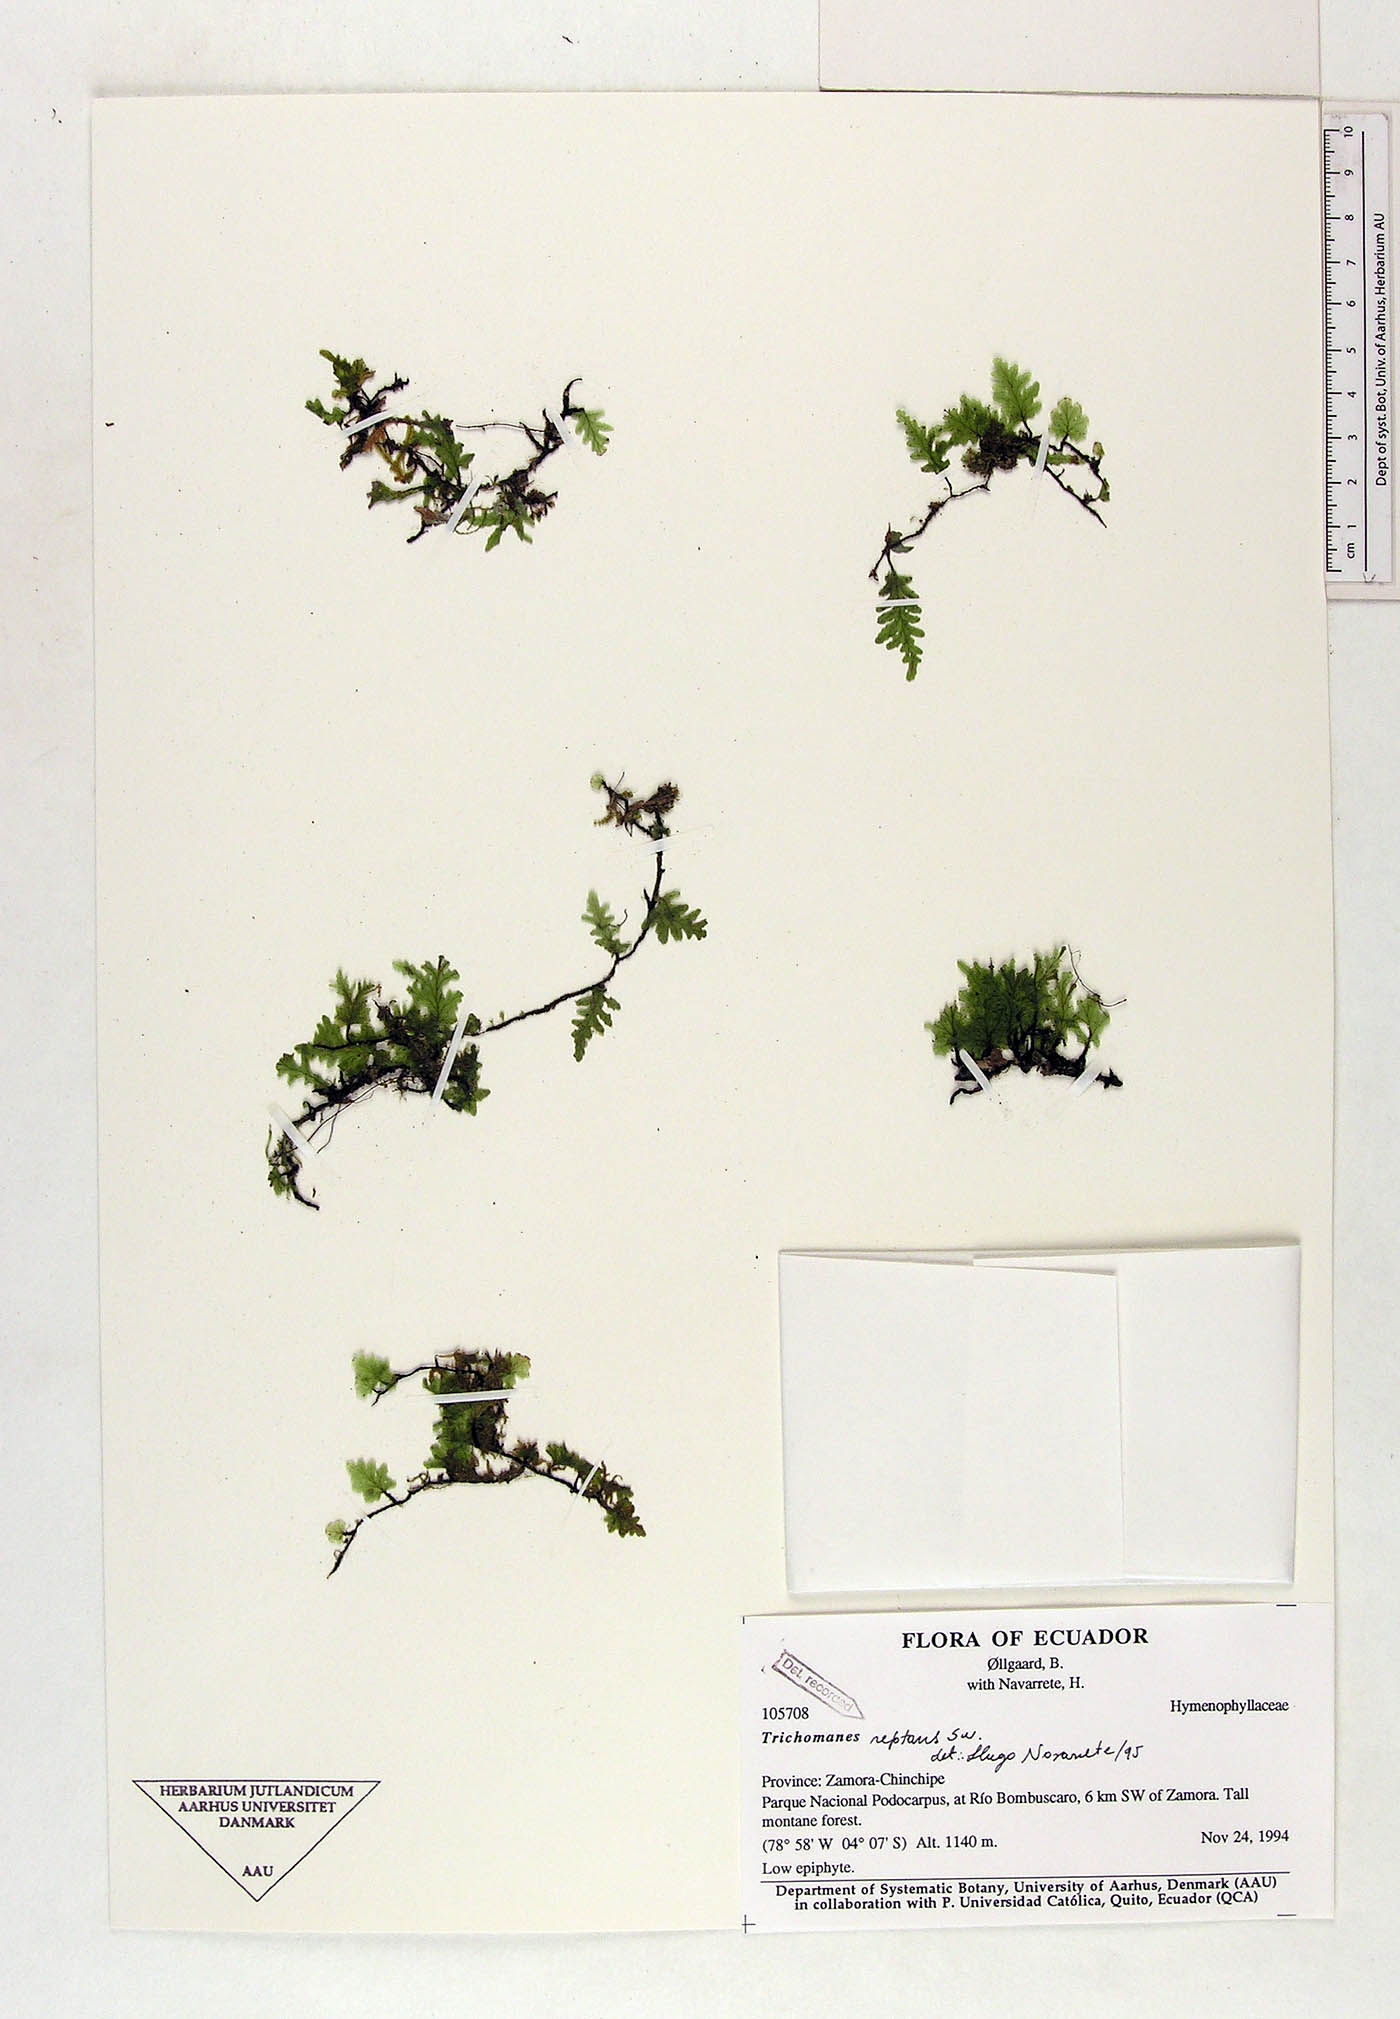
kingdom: Plantae
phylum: Tracheophyta
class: Polypodiopsida
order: Hymenophyllales
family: Hymenophyllaceae
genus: Didymoglossum
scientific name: Didymoglossum reptans
